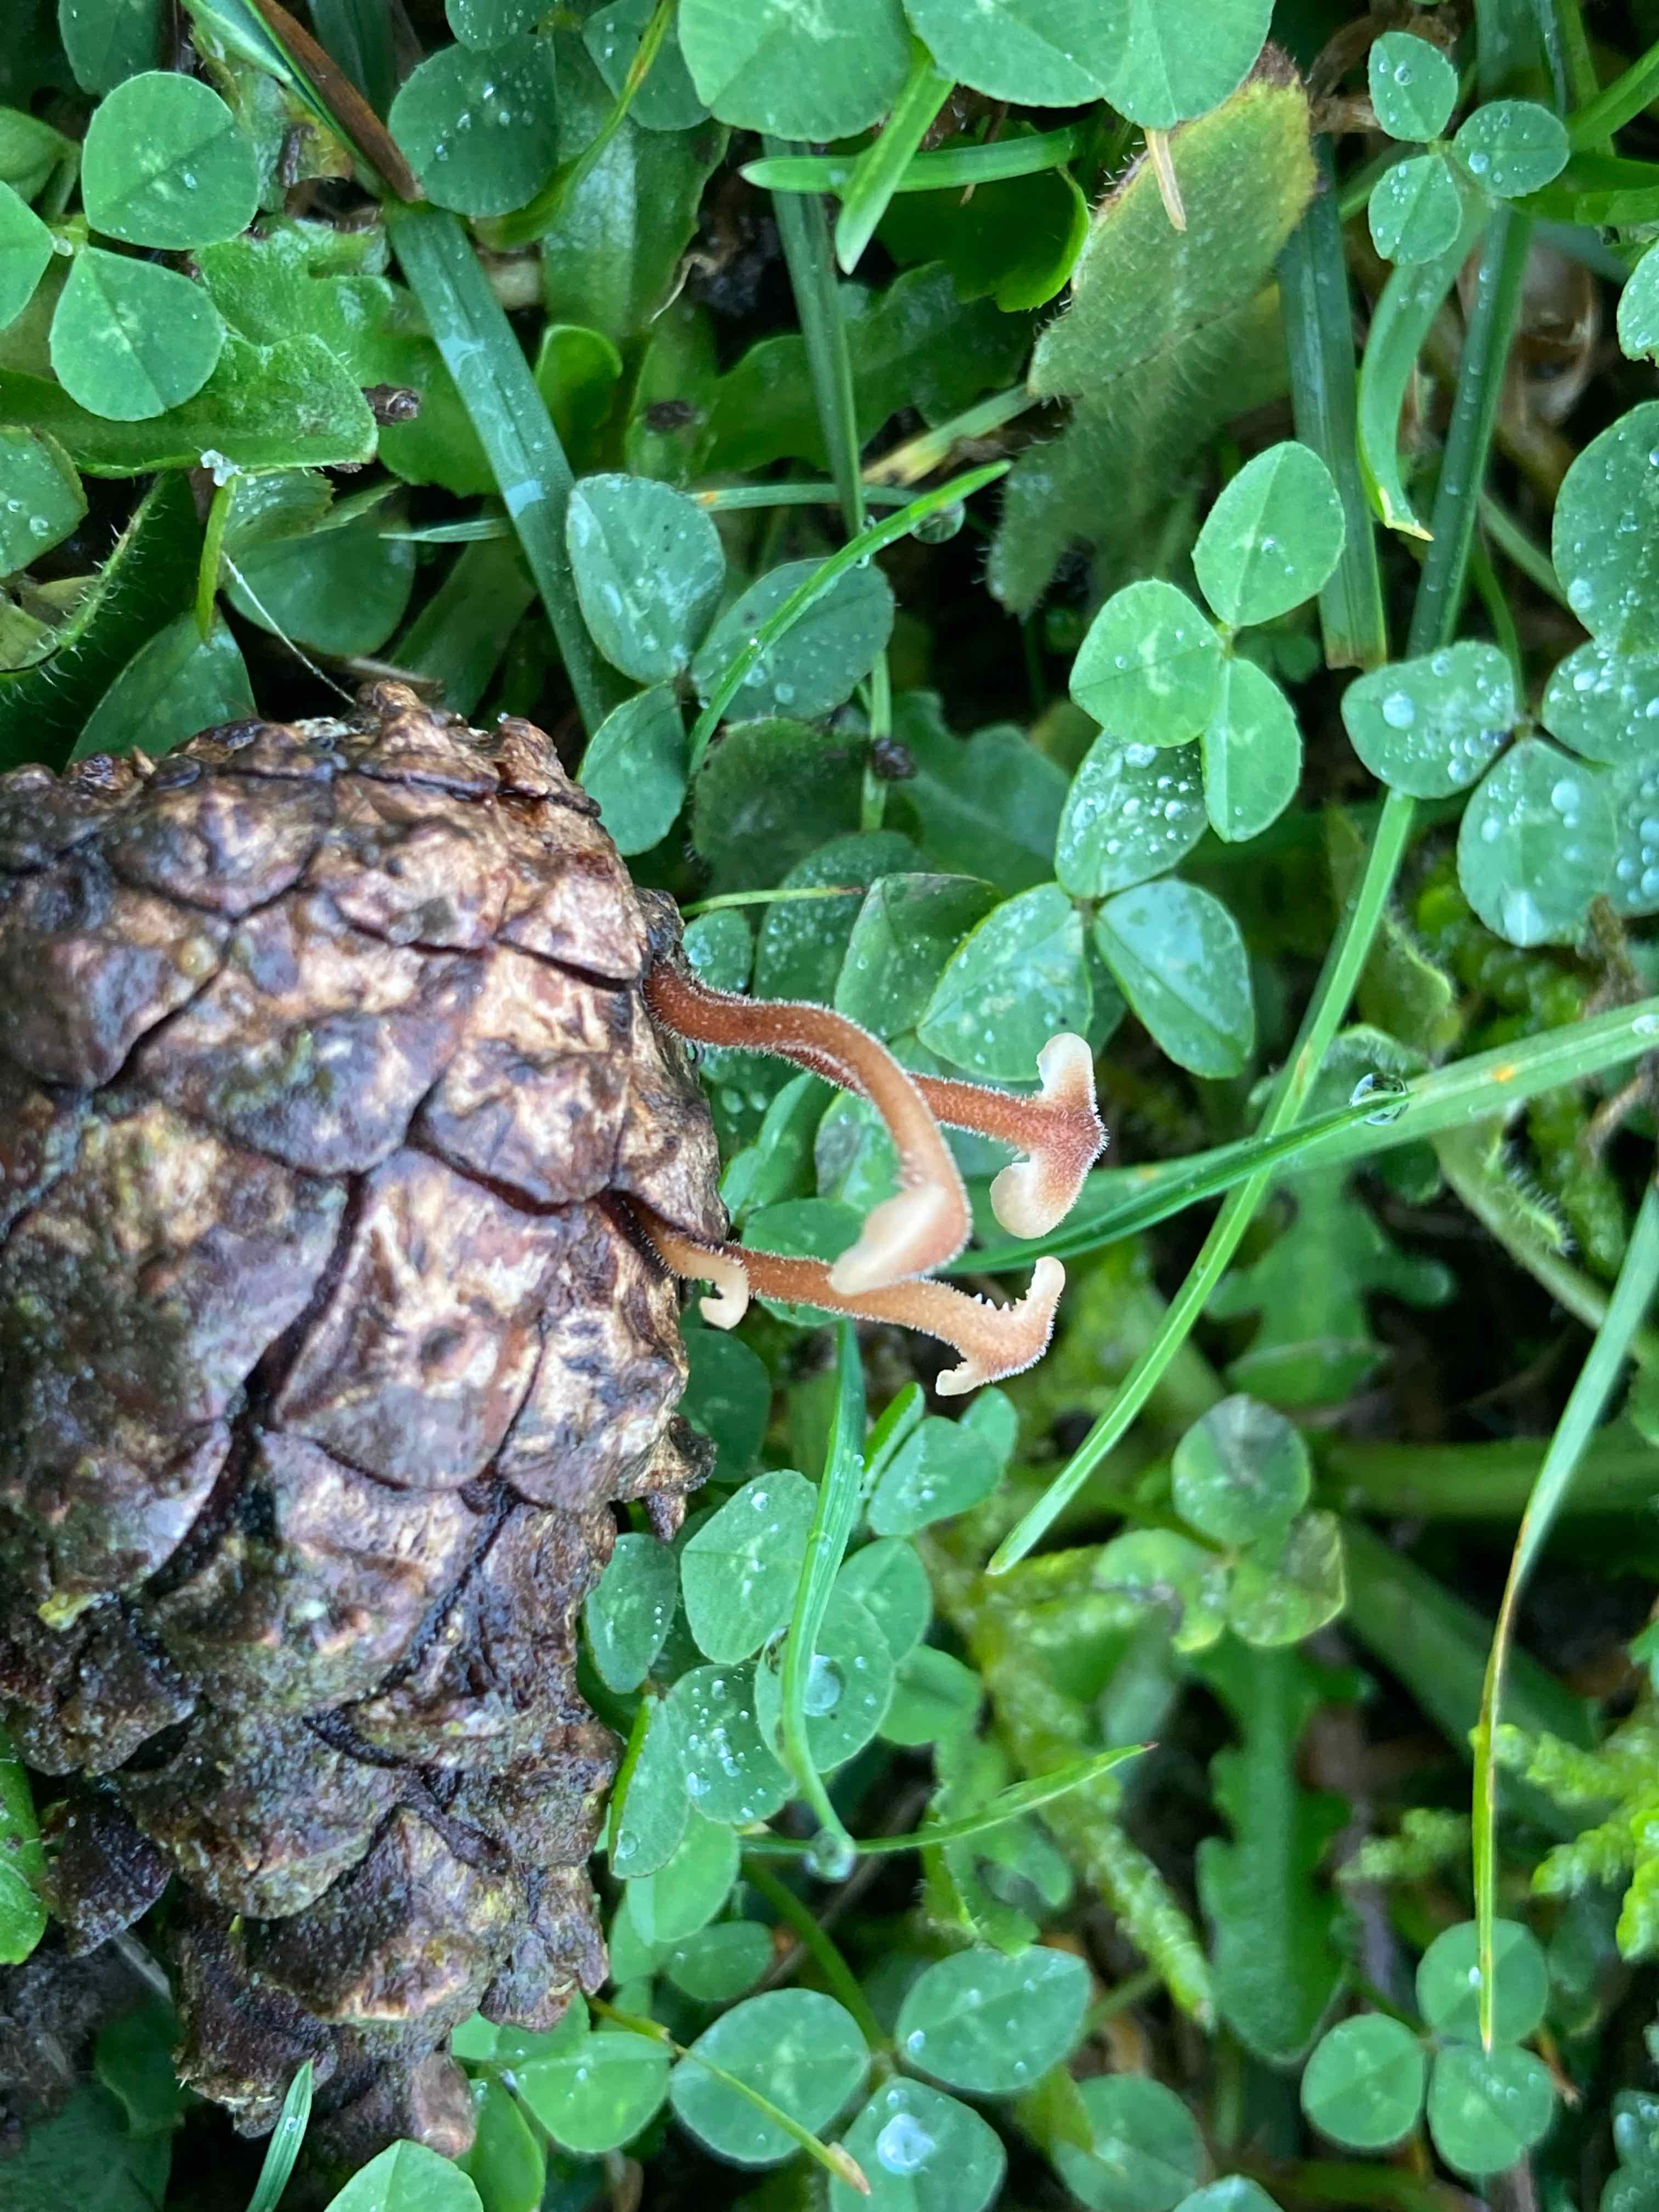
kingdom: Fungi
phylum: Basidiomycota
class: Agaricomycetes
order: Russulales
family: Auriscalpiaceae
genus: Auriscalpium
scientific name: Auriscalpium vulgare
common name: koglepigsvamp
